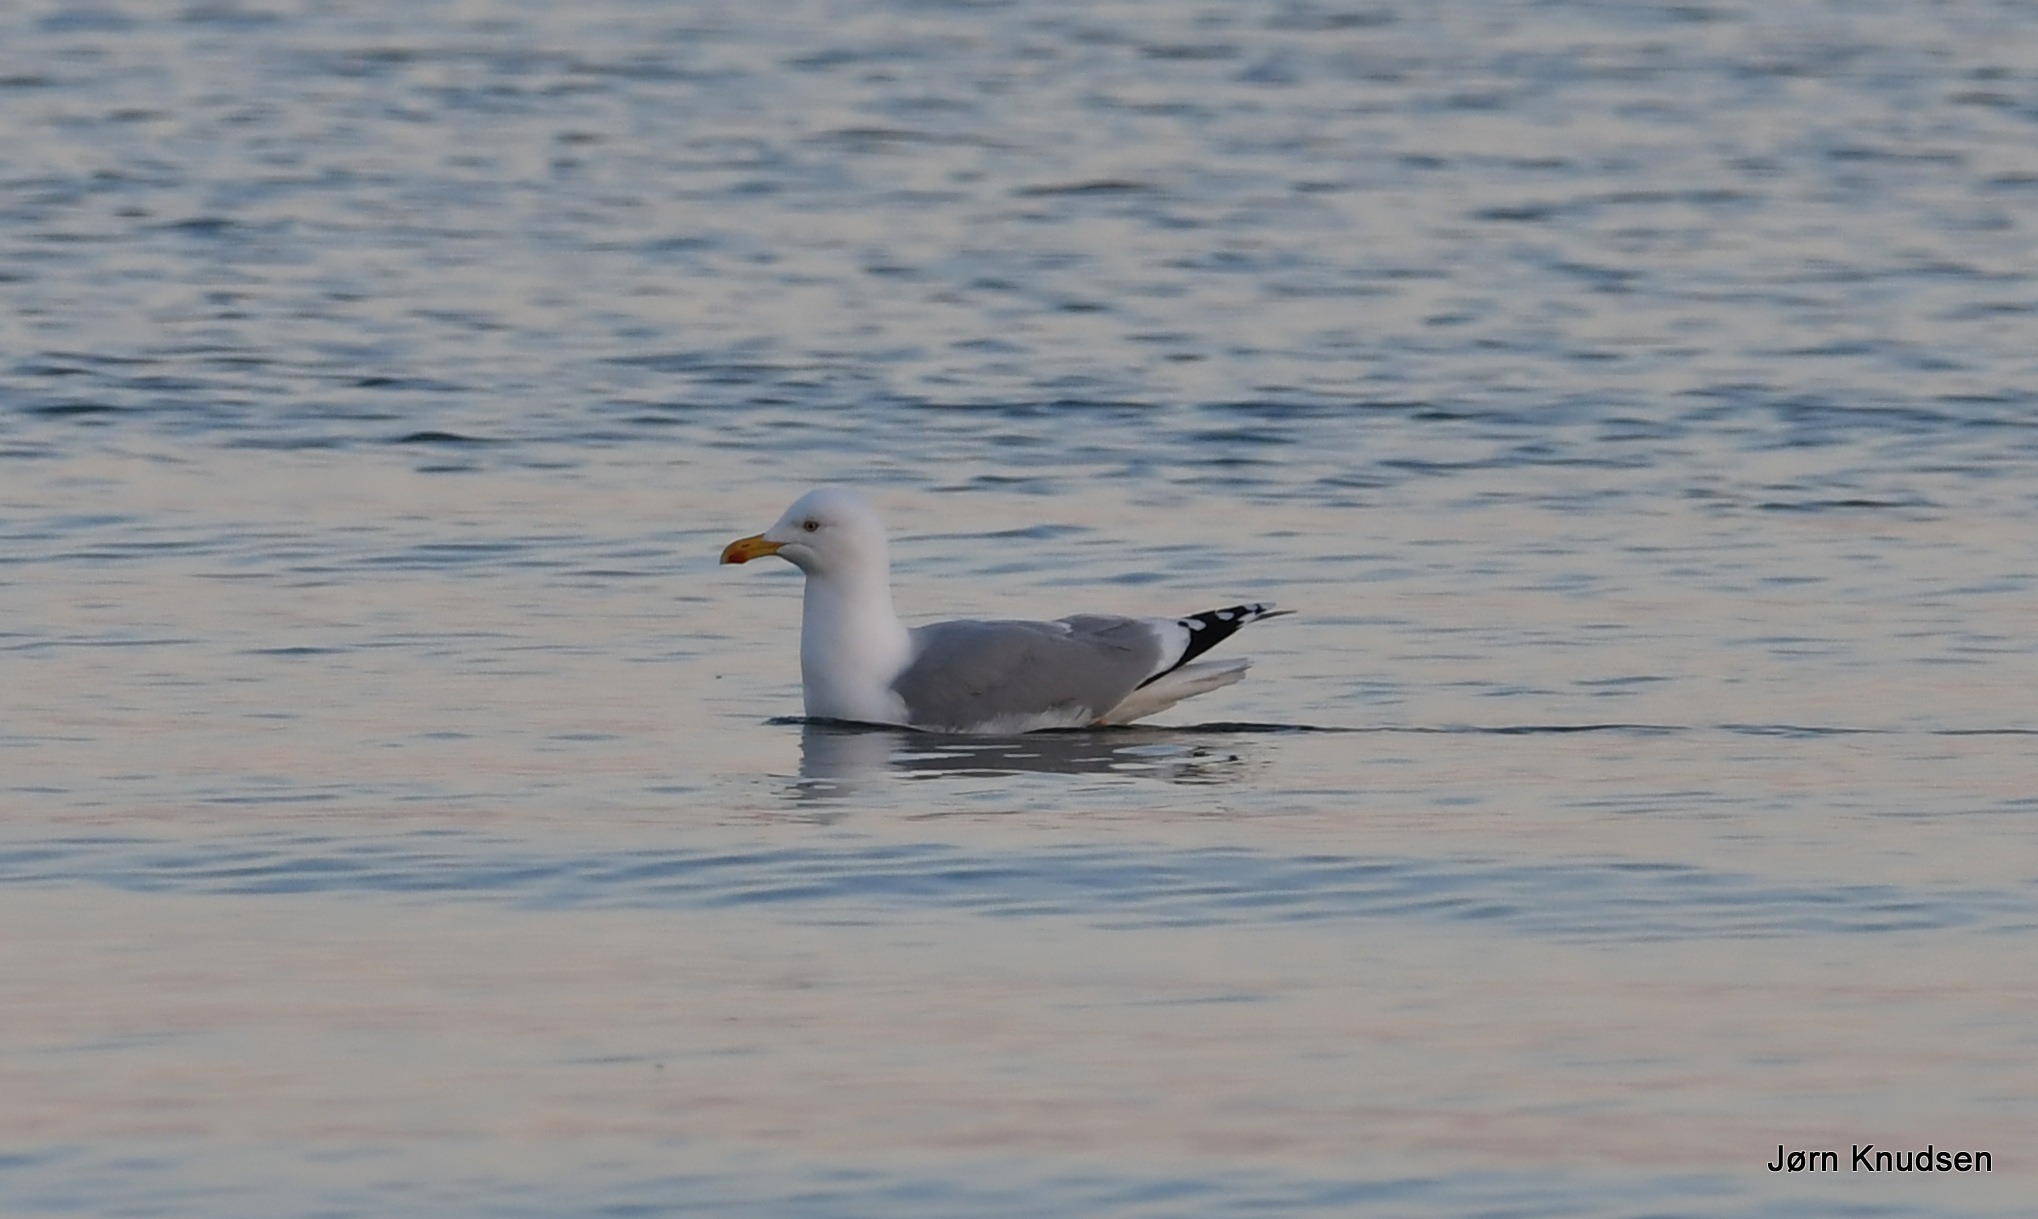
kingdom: Animalia
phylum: Chordata
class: Aves
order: Charadriiformes
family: Laridae
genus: Larus
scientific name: Larus argentatus
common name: Sølvmåge
